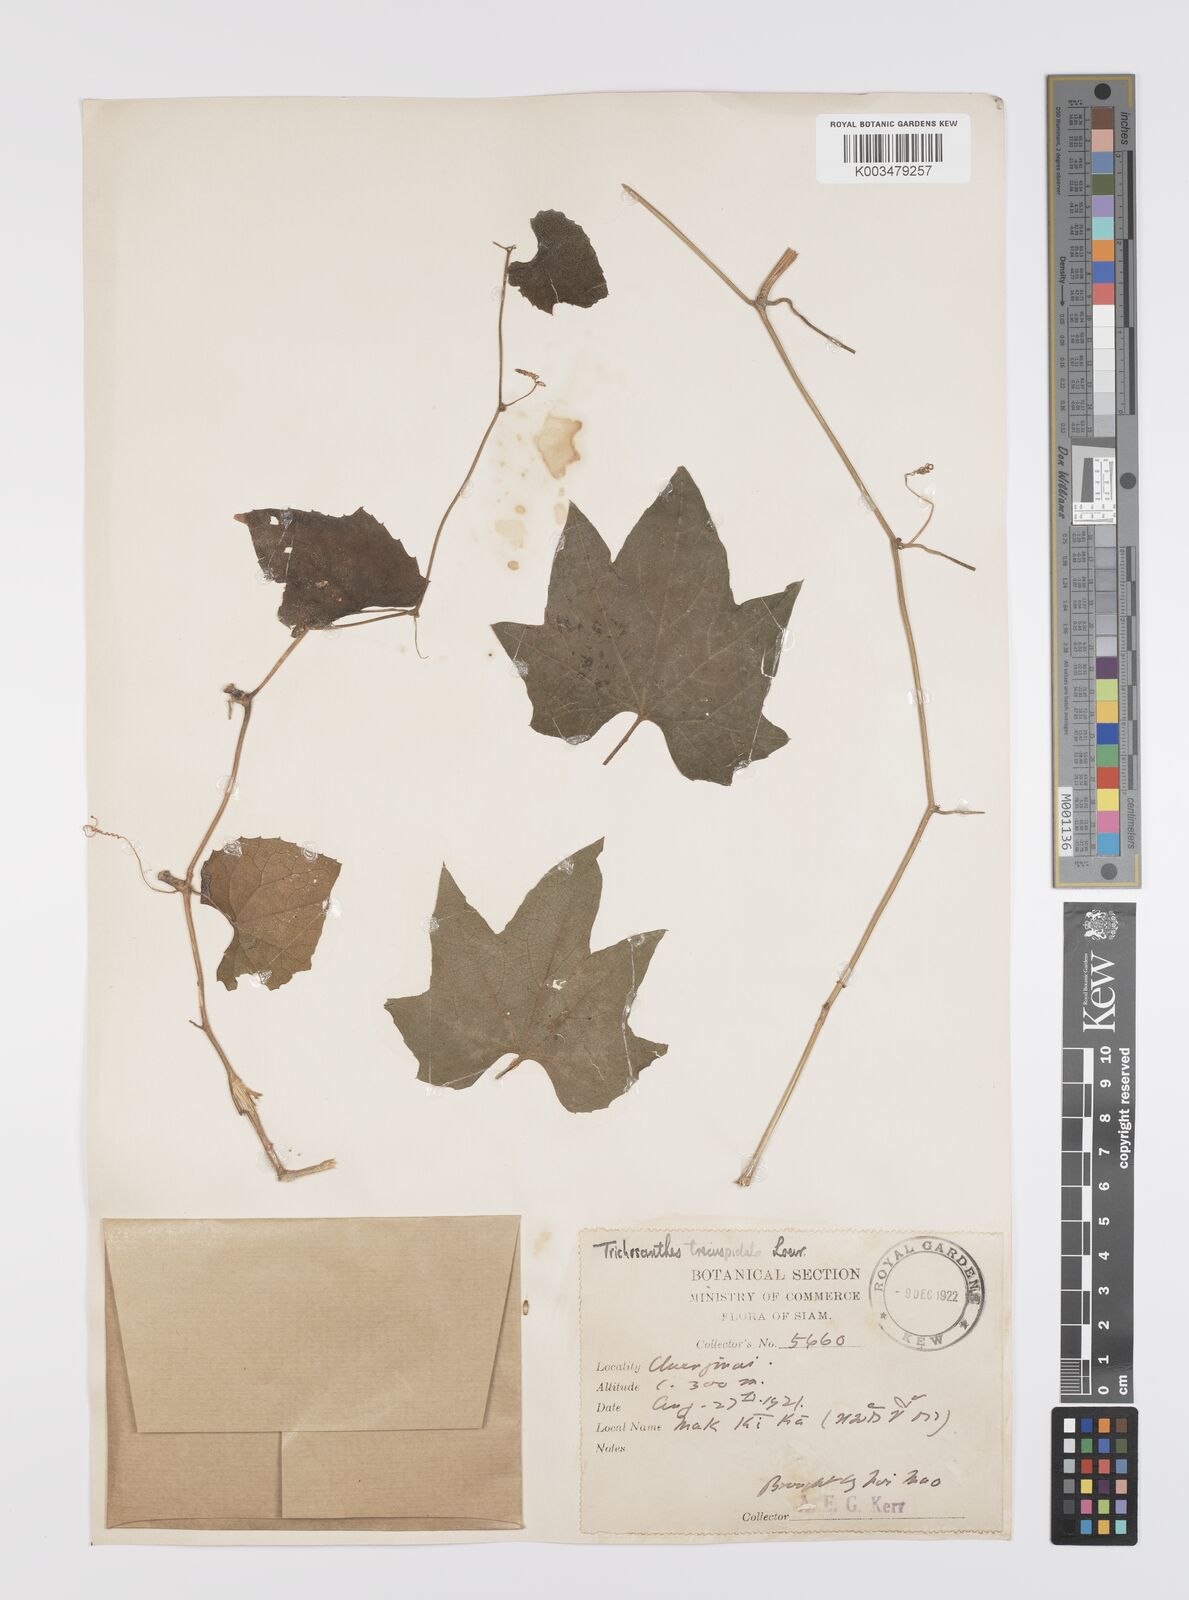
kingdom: Plantae
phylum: Tracheophyta
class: Magnoliopsida
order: Cucurbitales
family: Cucurbitaceae
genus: Trichosanthes
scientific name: Trichosanthes tricuspidata
